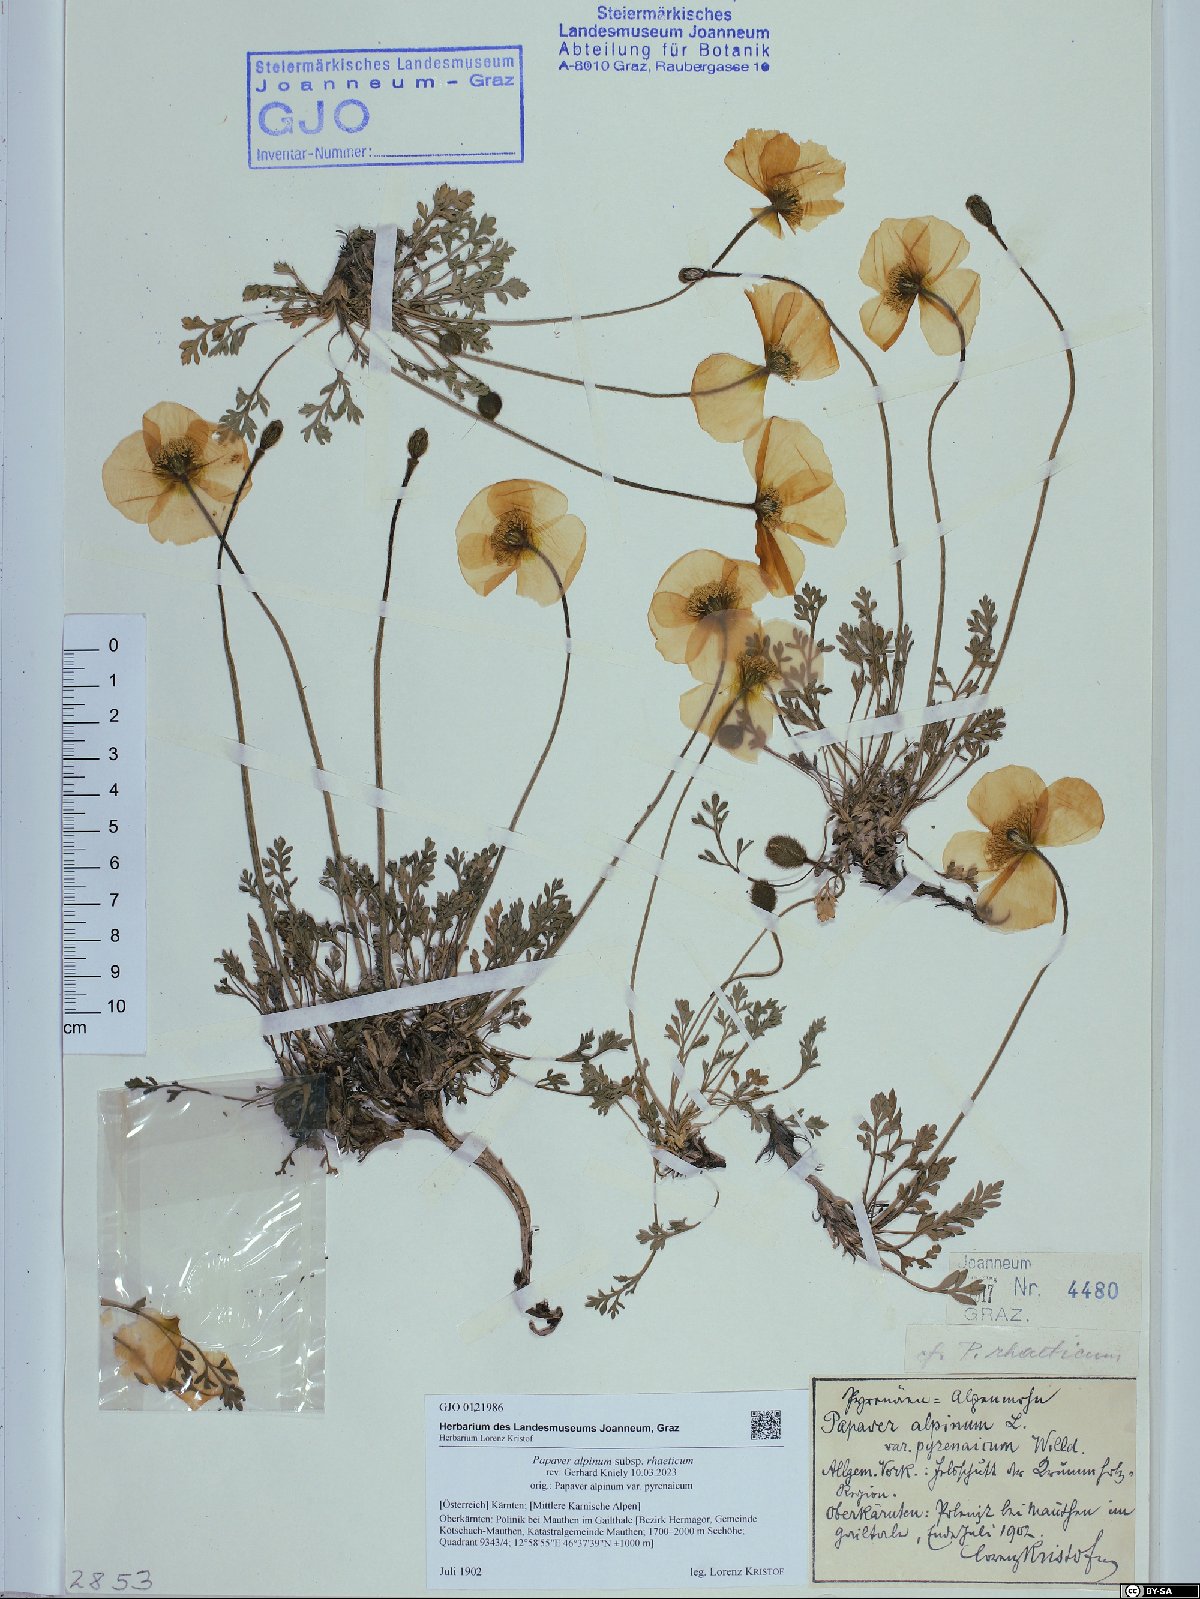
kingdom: Plantae
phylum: Tracheophyta
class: Magnoliopsida
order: Ranunculales
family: Papaveraceae
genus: Papaver
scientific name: Papaver alpinum
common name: Austrian poppy
